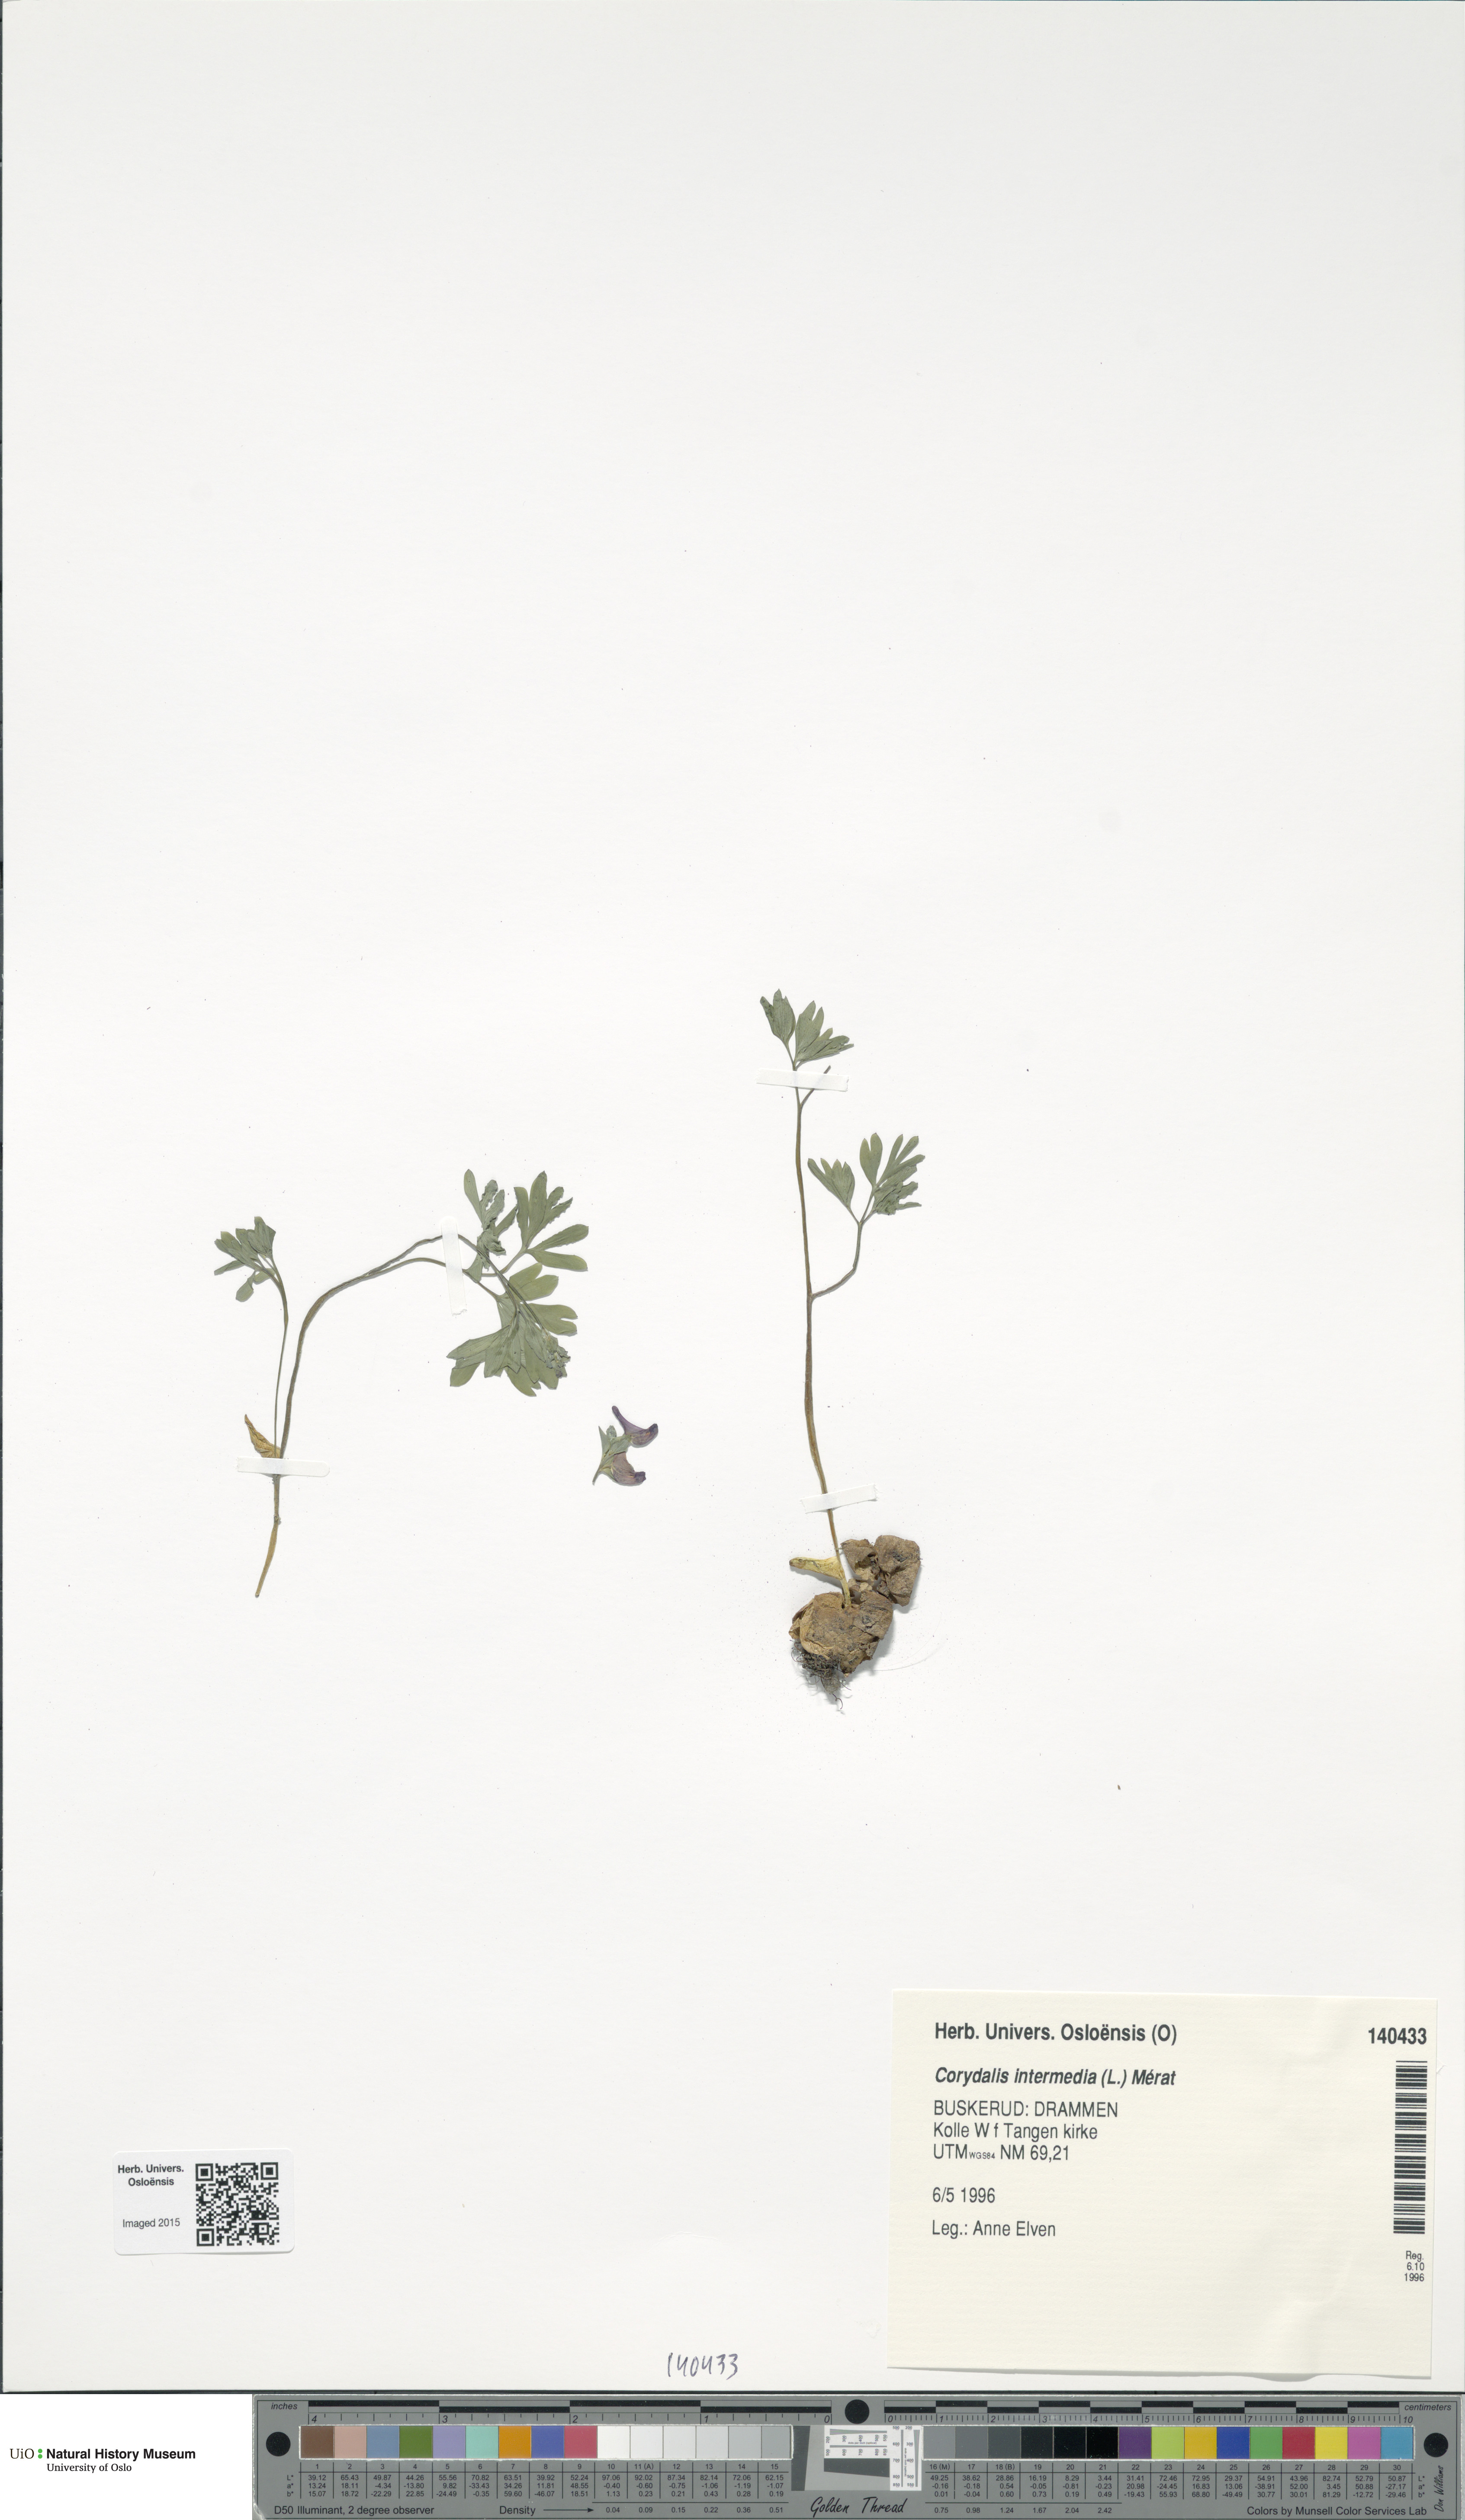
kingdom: Plantae
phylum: Tracheophyta
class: Magnoliopsida
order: Ranunculales
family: Papaveraceae
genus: Corydalis
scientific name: Corydalis intermedia
